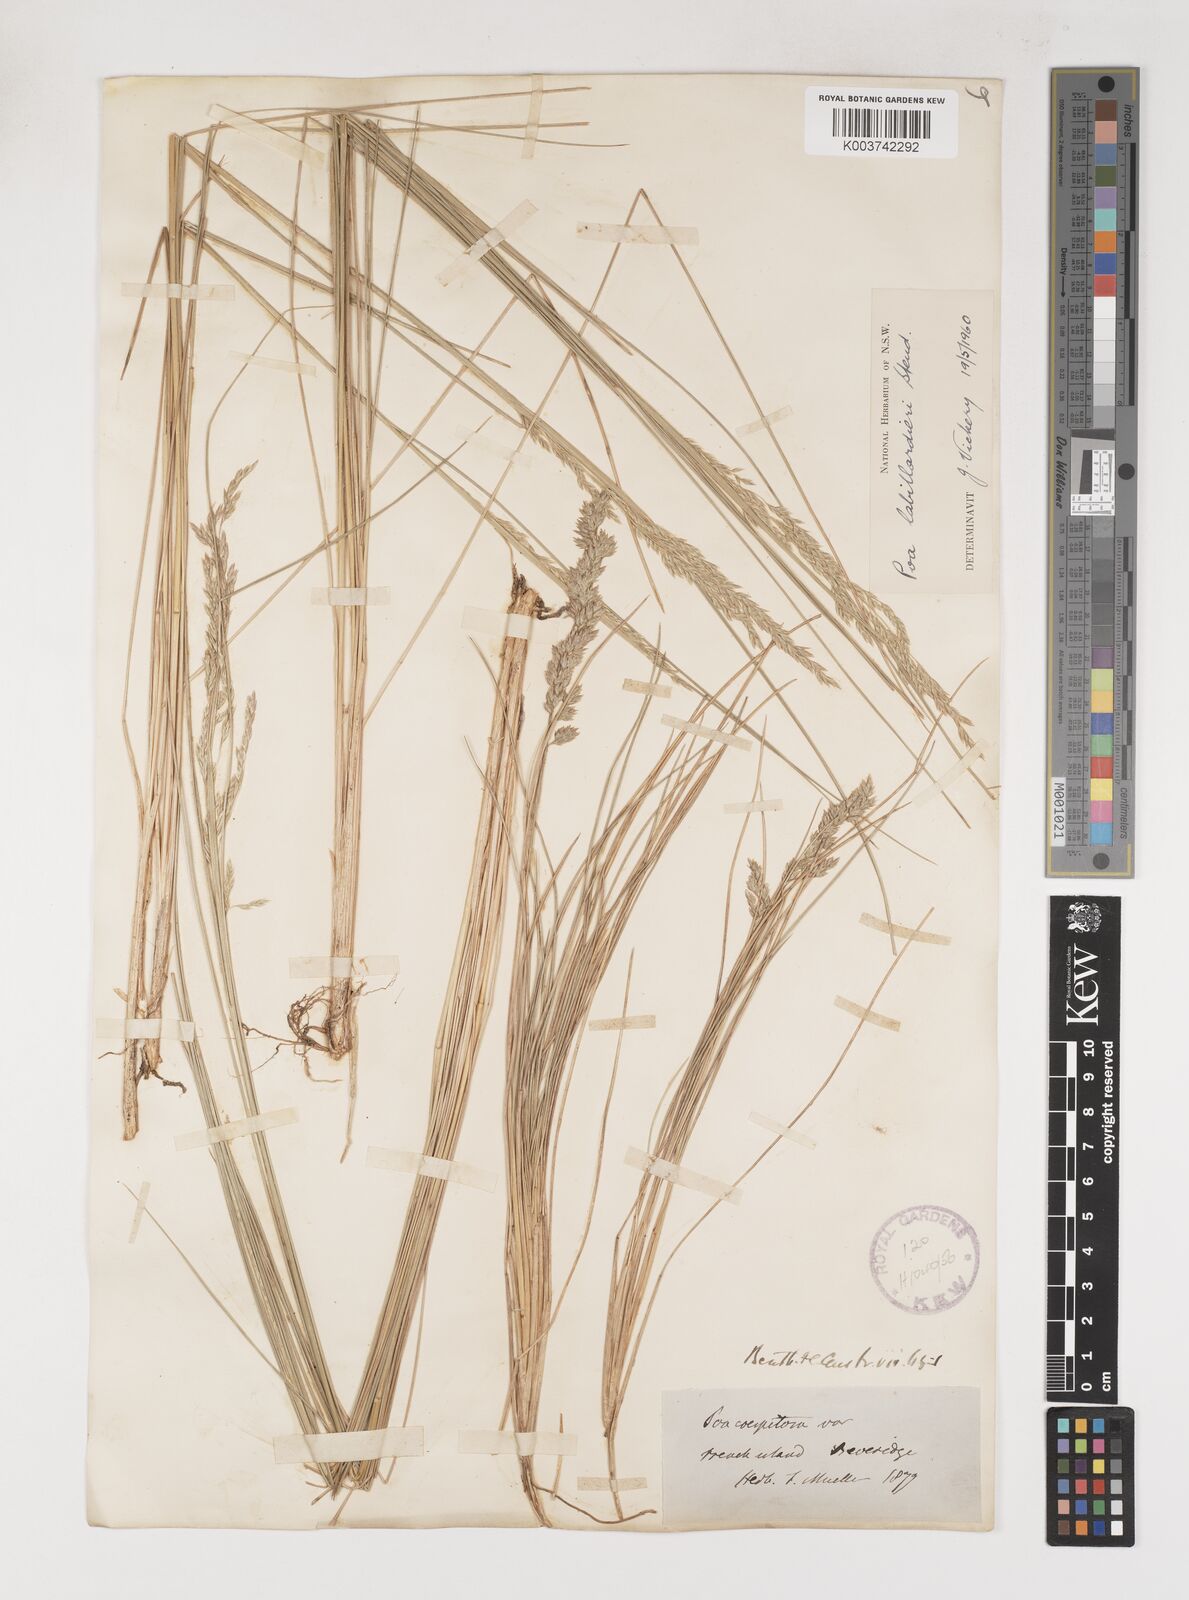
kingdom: Plantae
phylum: Tracheophyta
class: Liliopsida
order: Poales
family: Poaceae
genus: Poa
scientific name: Poa labillardierei
